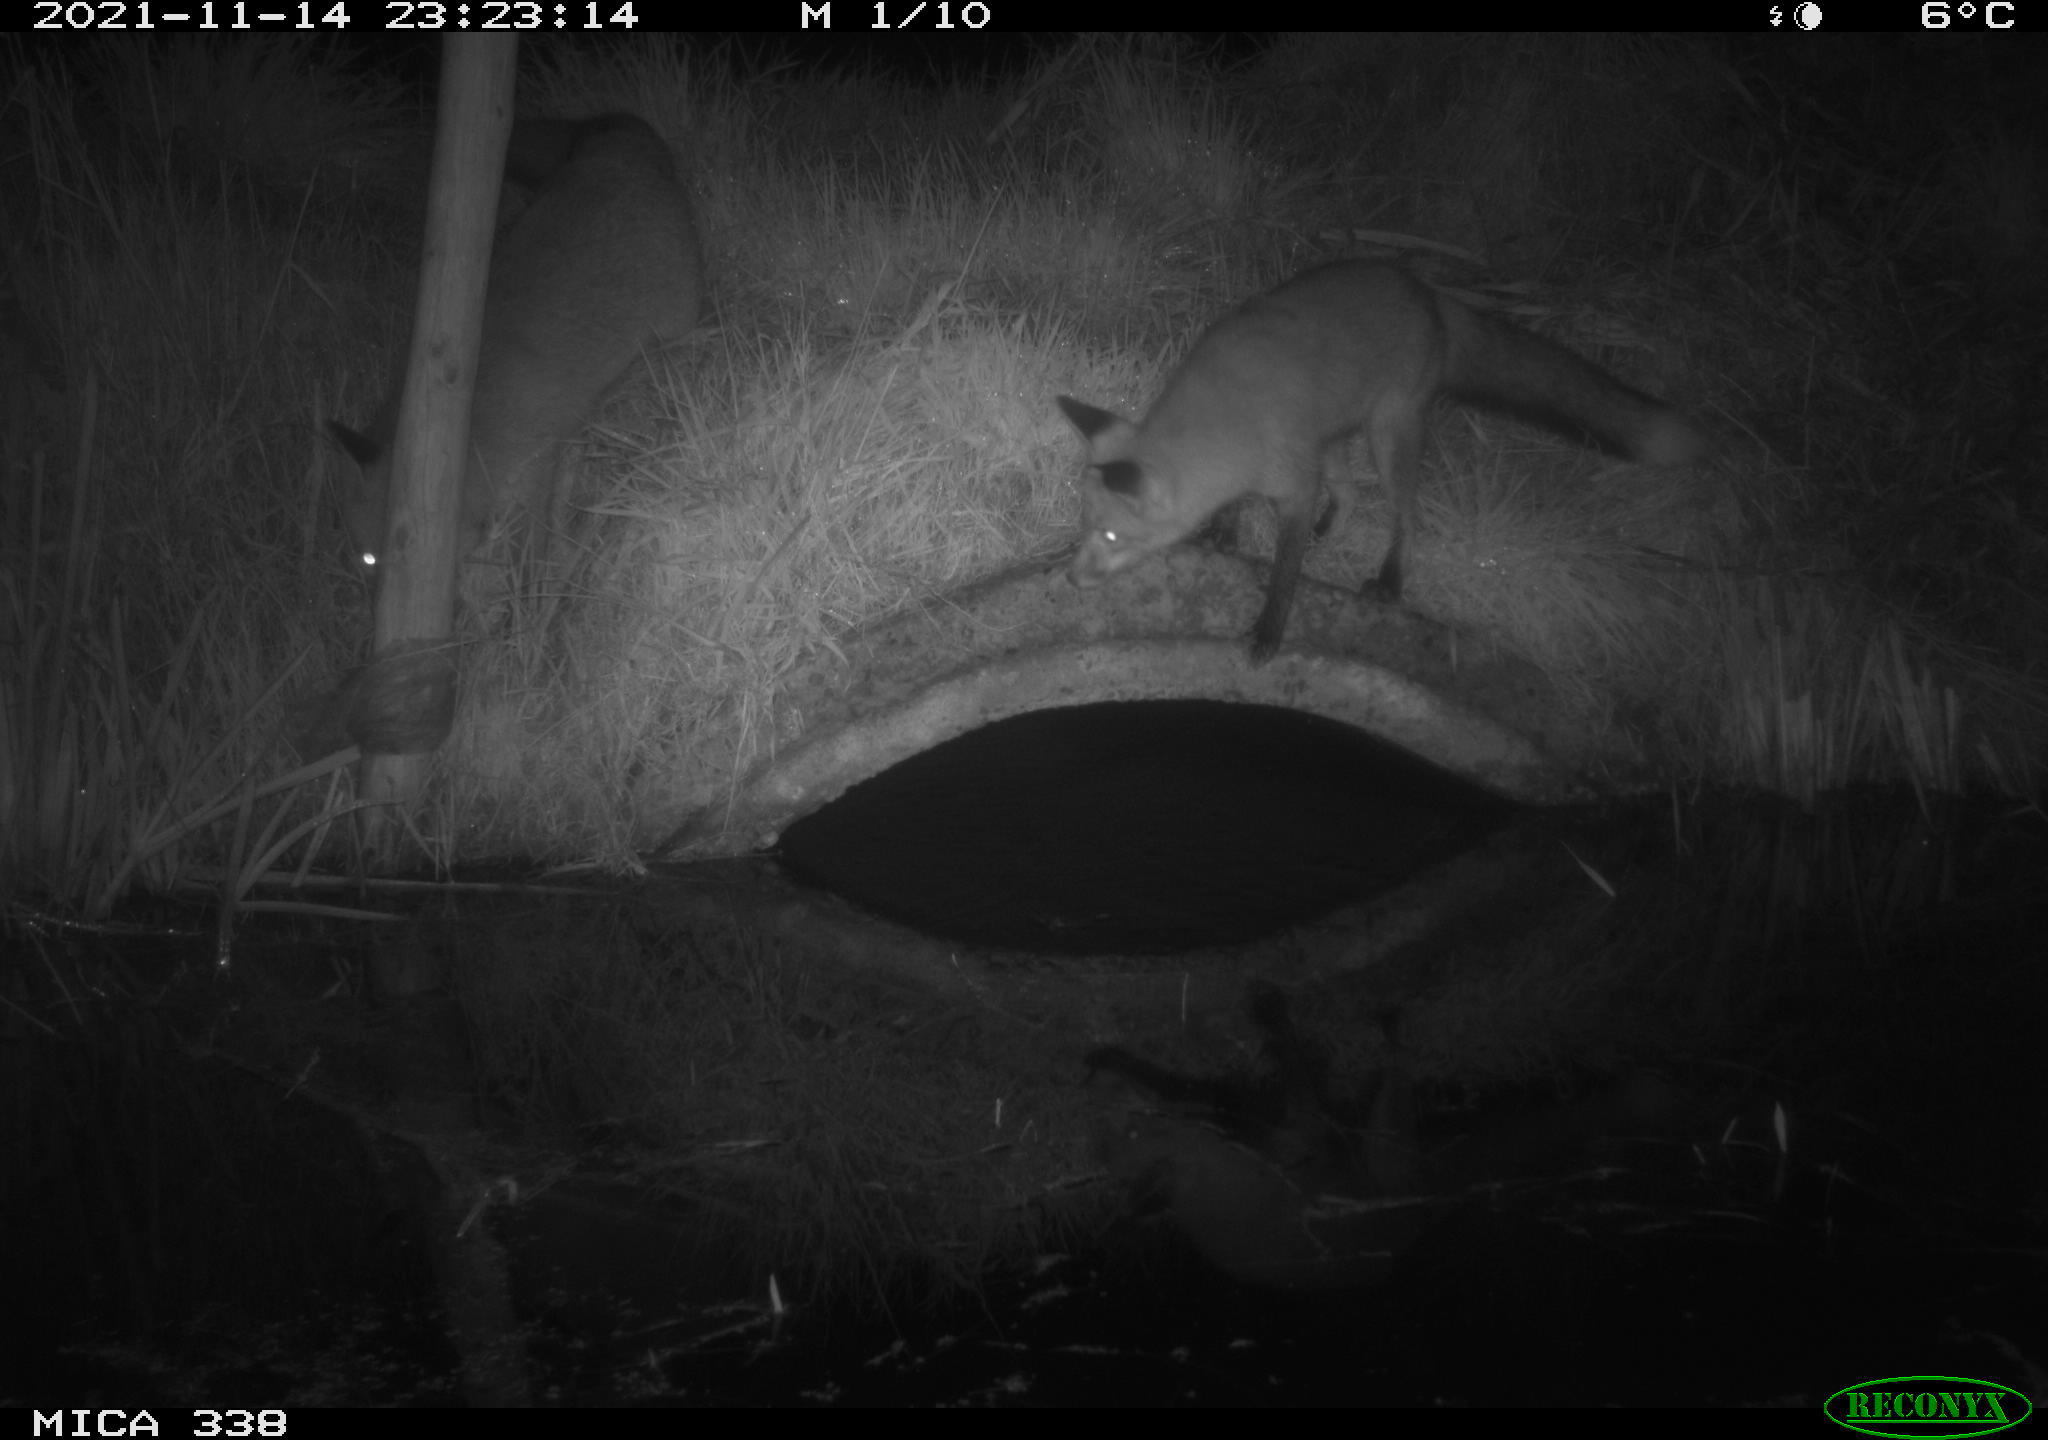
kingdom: Animalia
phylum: Chordata
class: Mammalia
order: Carnivora
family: Canidae
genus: Vulpes
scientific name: Vulpes vulpes
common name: Red fox
